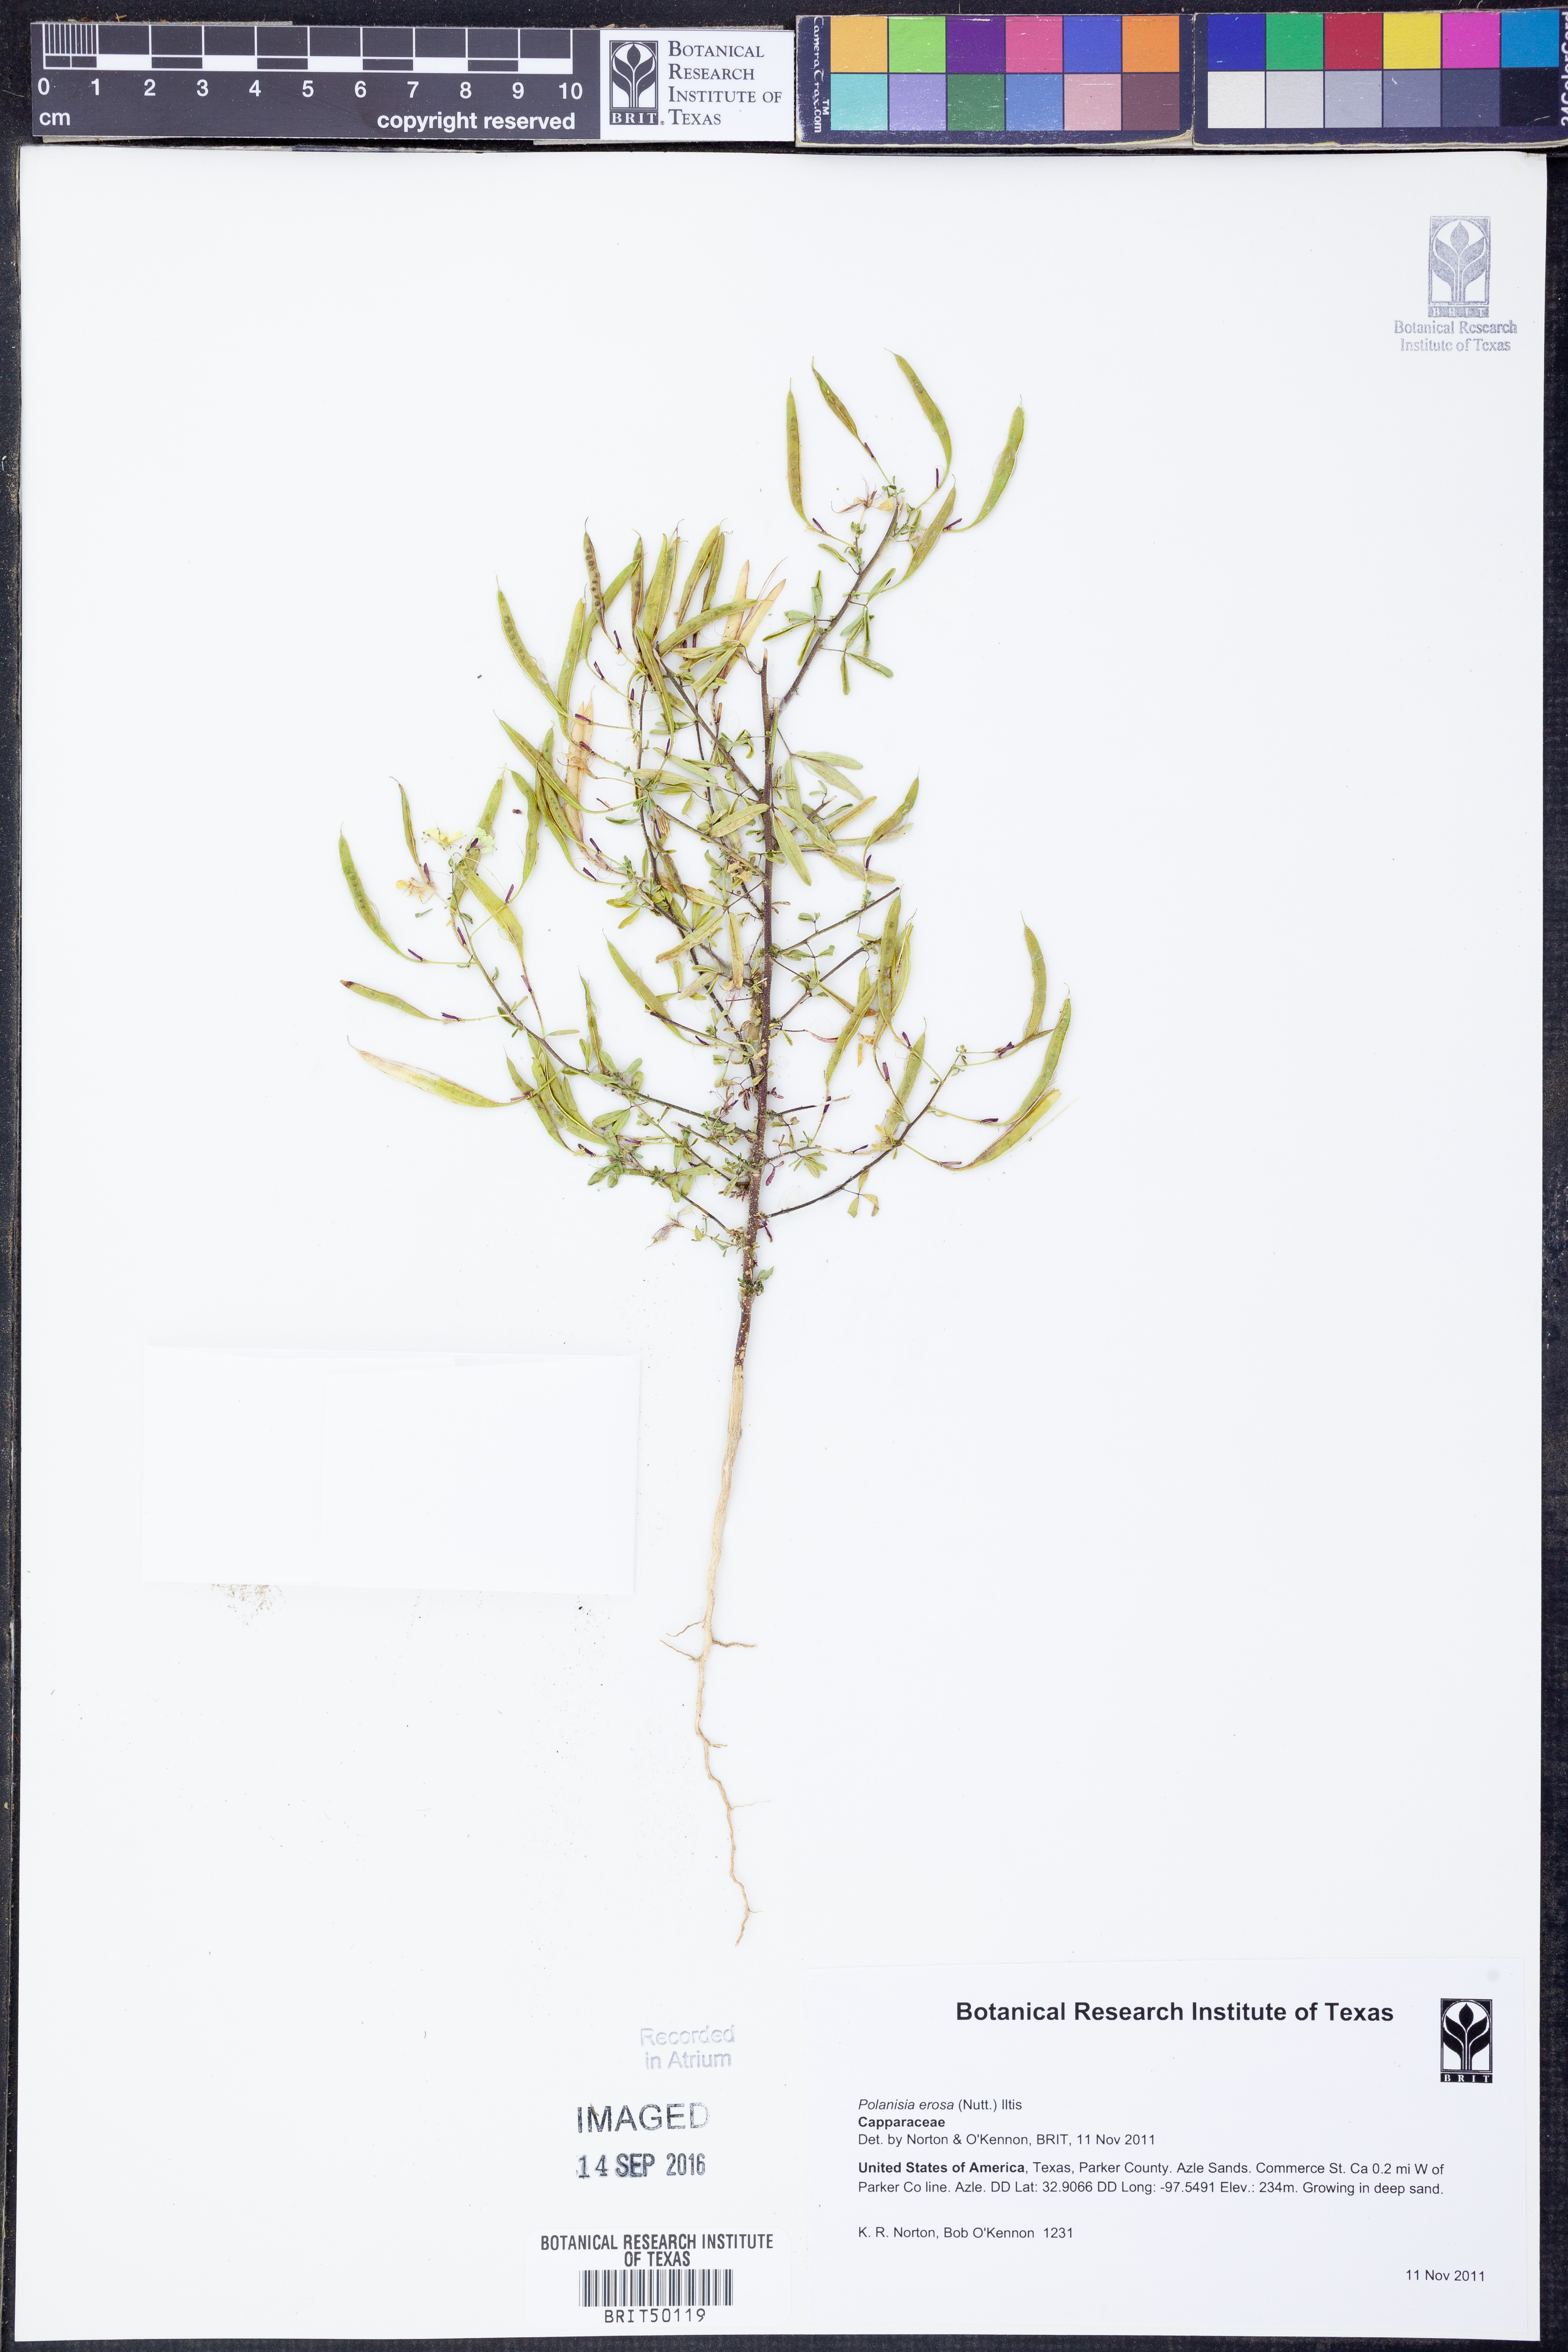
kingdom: Plantae
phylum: Tracheophyta
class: Magnoliopsida
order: Brassicales
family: Cleomaceae
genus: Polanisia
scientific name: Polanisia erosa
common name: Large clammyweed
